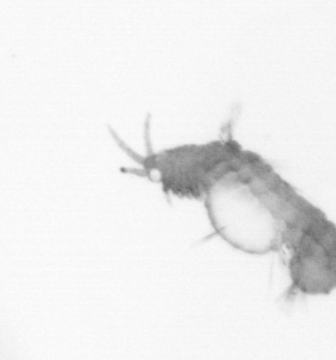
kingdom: Animalia
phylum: Annelida
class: Polychaeta
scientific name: Polychaeta
